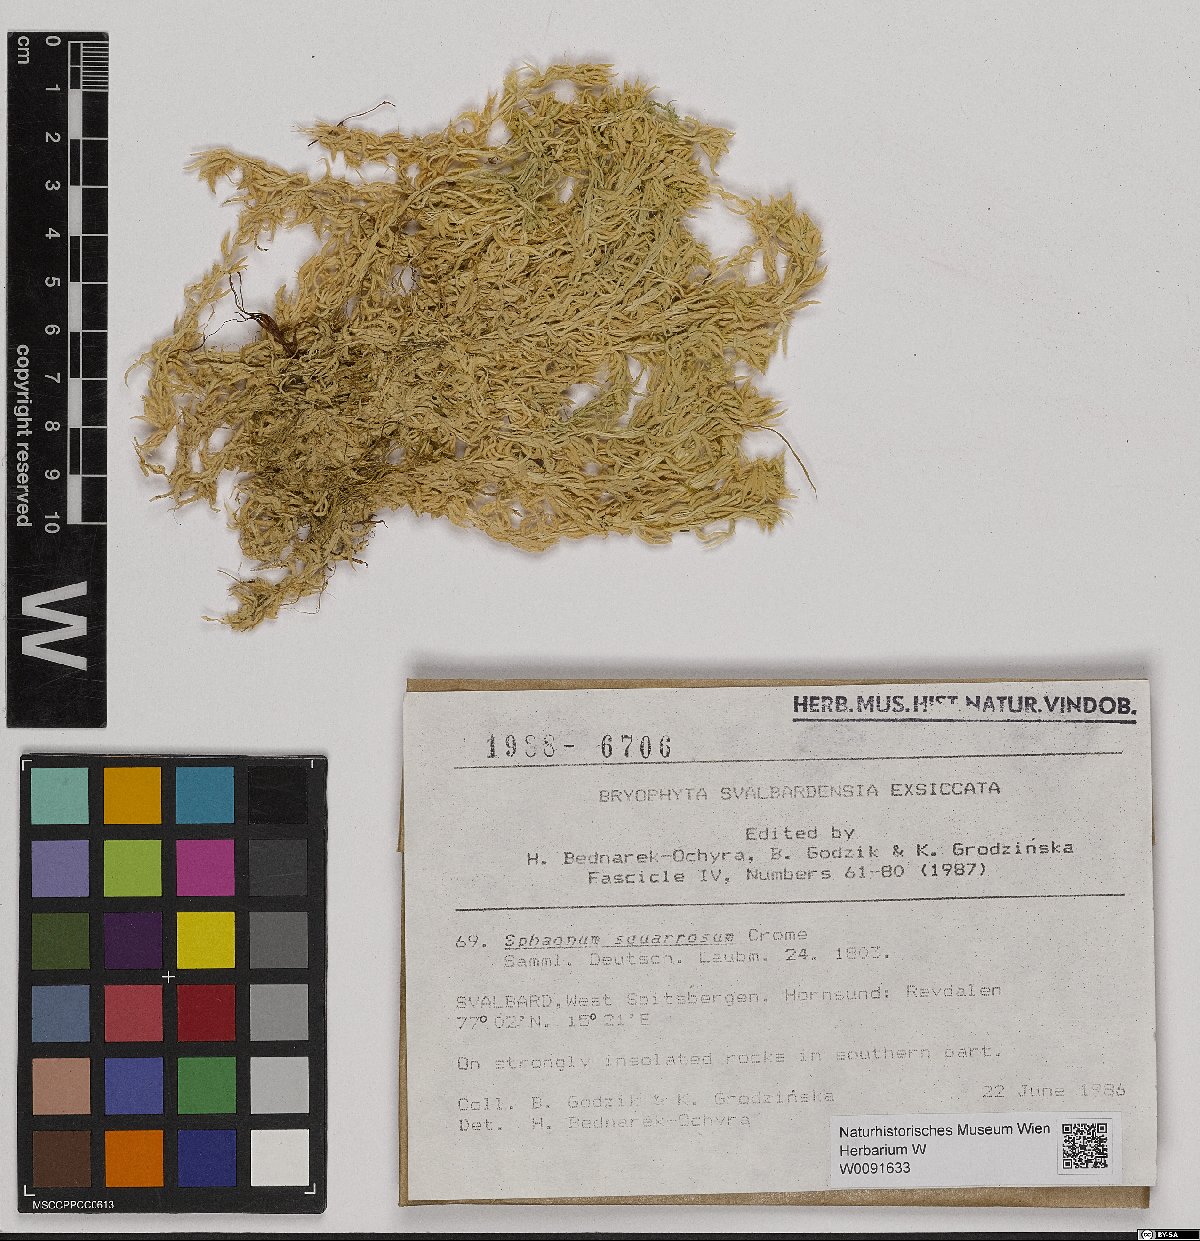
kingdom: Plantae
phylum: Bryophyta
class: Sphagnopsida
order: Sphagnales
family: Sphagnaceae
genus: Sphagnum
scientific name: Sphagnum squarrosum
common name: Shaggy peat moss
